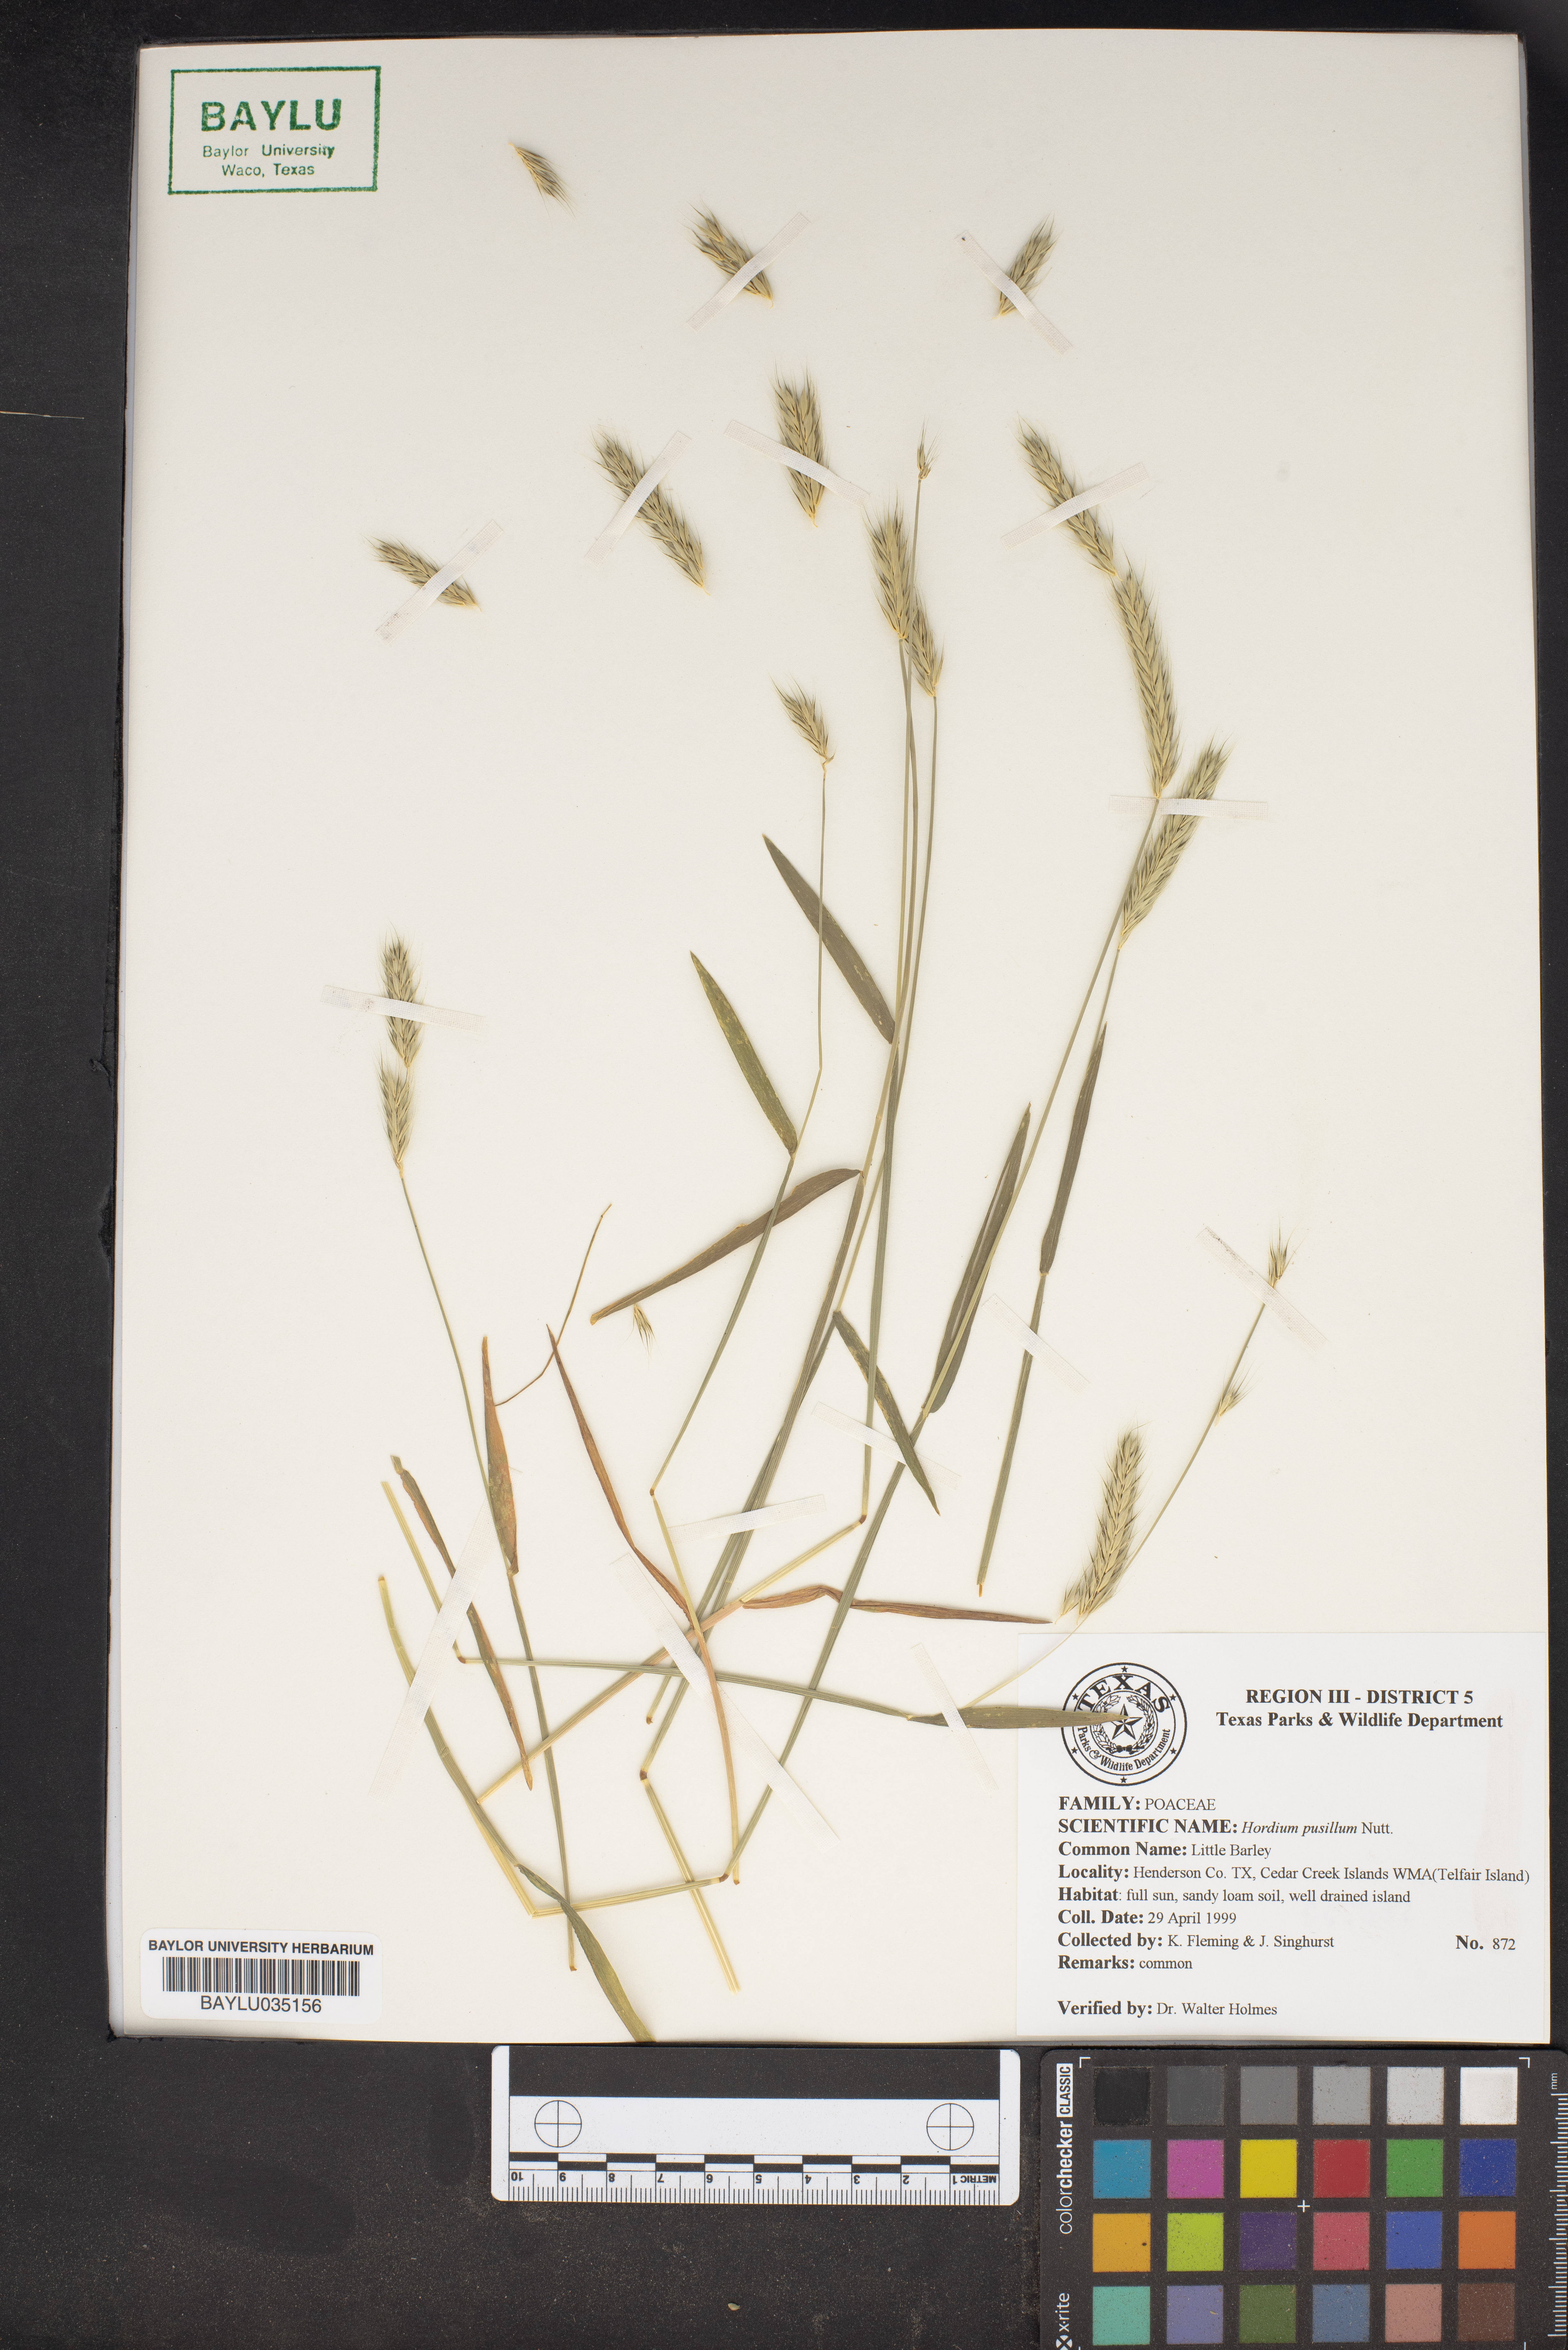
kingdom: Plantae
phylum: Tracheophyta
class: Liliopsida
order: Poales
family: Poaceae
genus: Hordeum
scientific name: Hordeum pusillum
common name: Little barley
